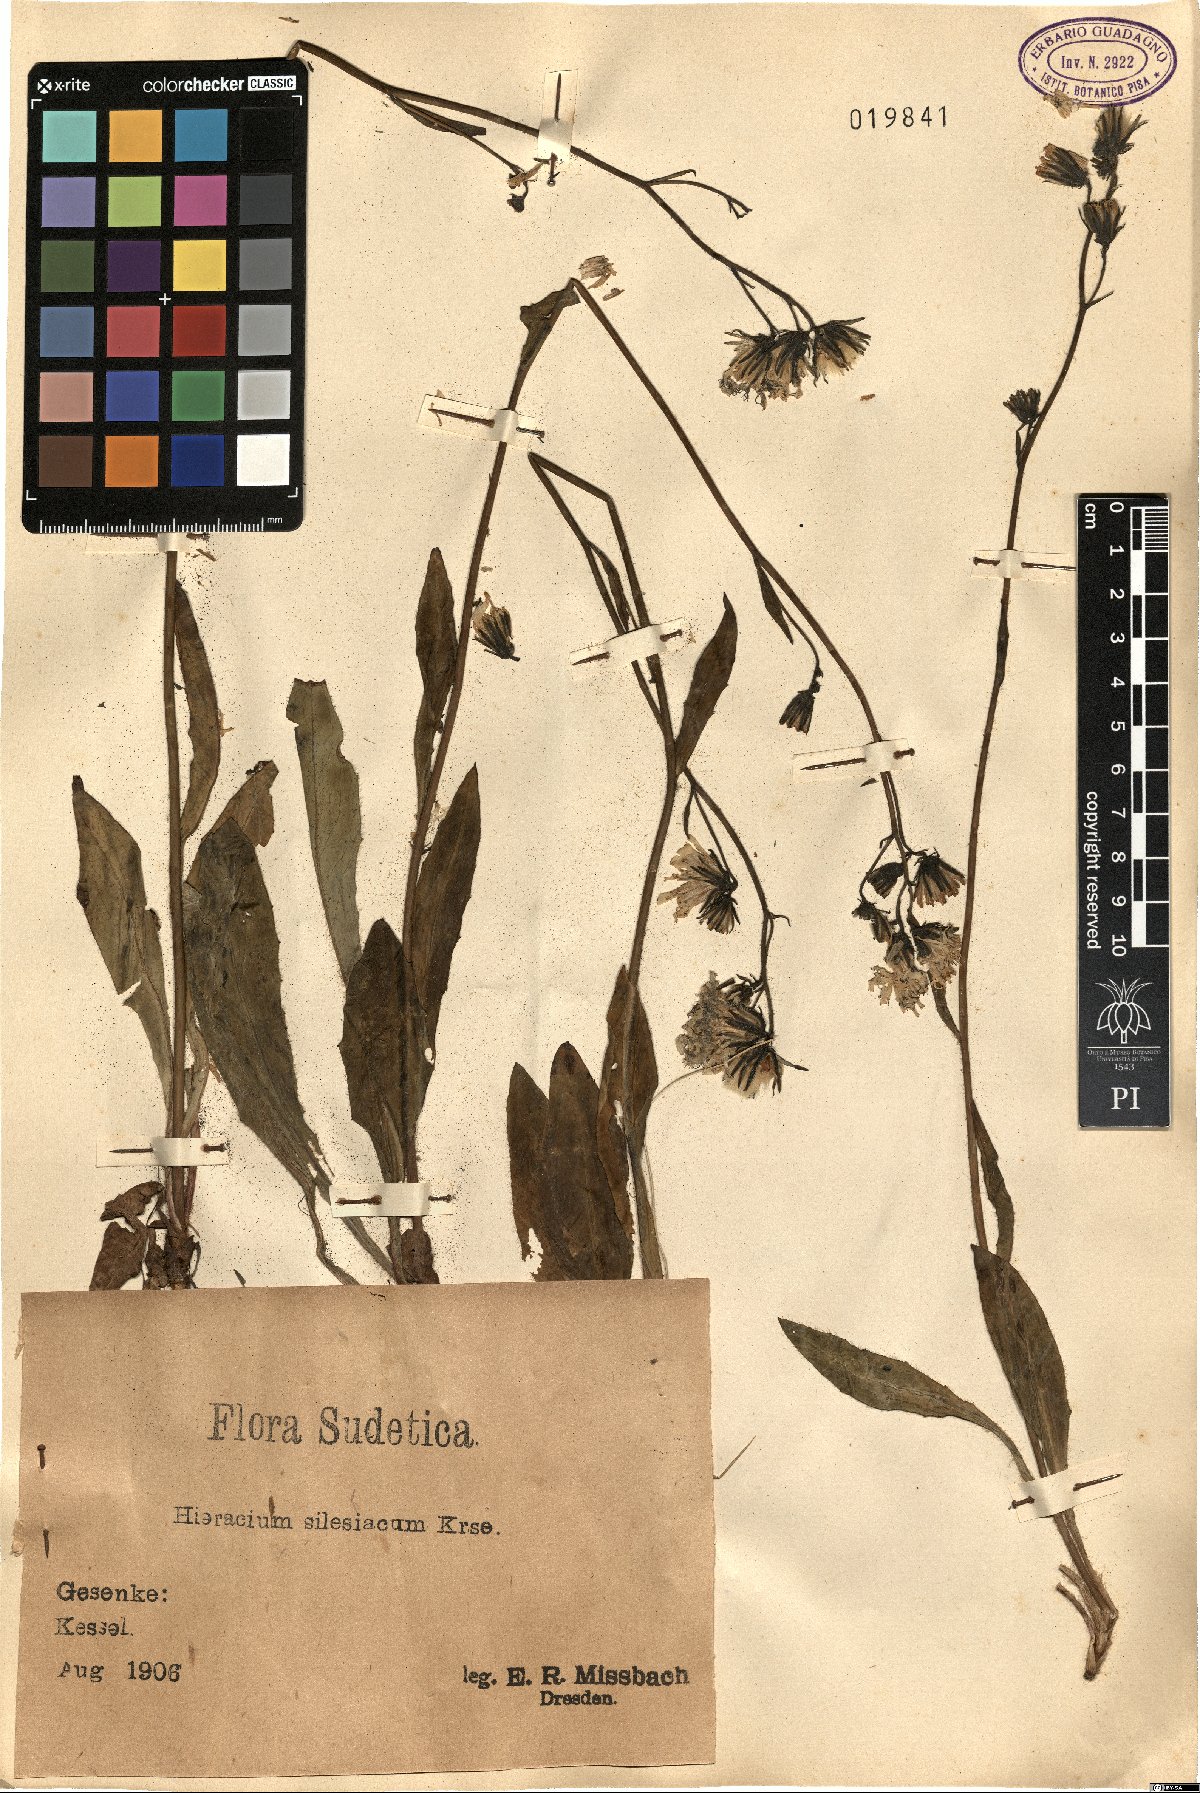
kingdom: Plantae
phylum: Tracheophyta
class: Magnoliopsida
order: Asterales
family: Asteraceae
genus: Hieracium
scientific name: Hieracium sparsum
